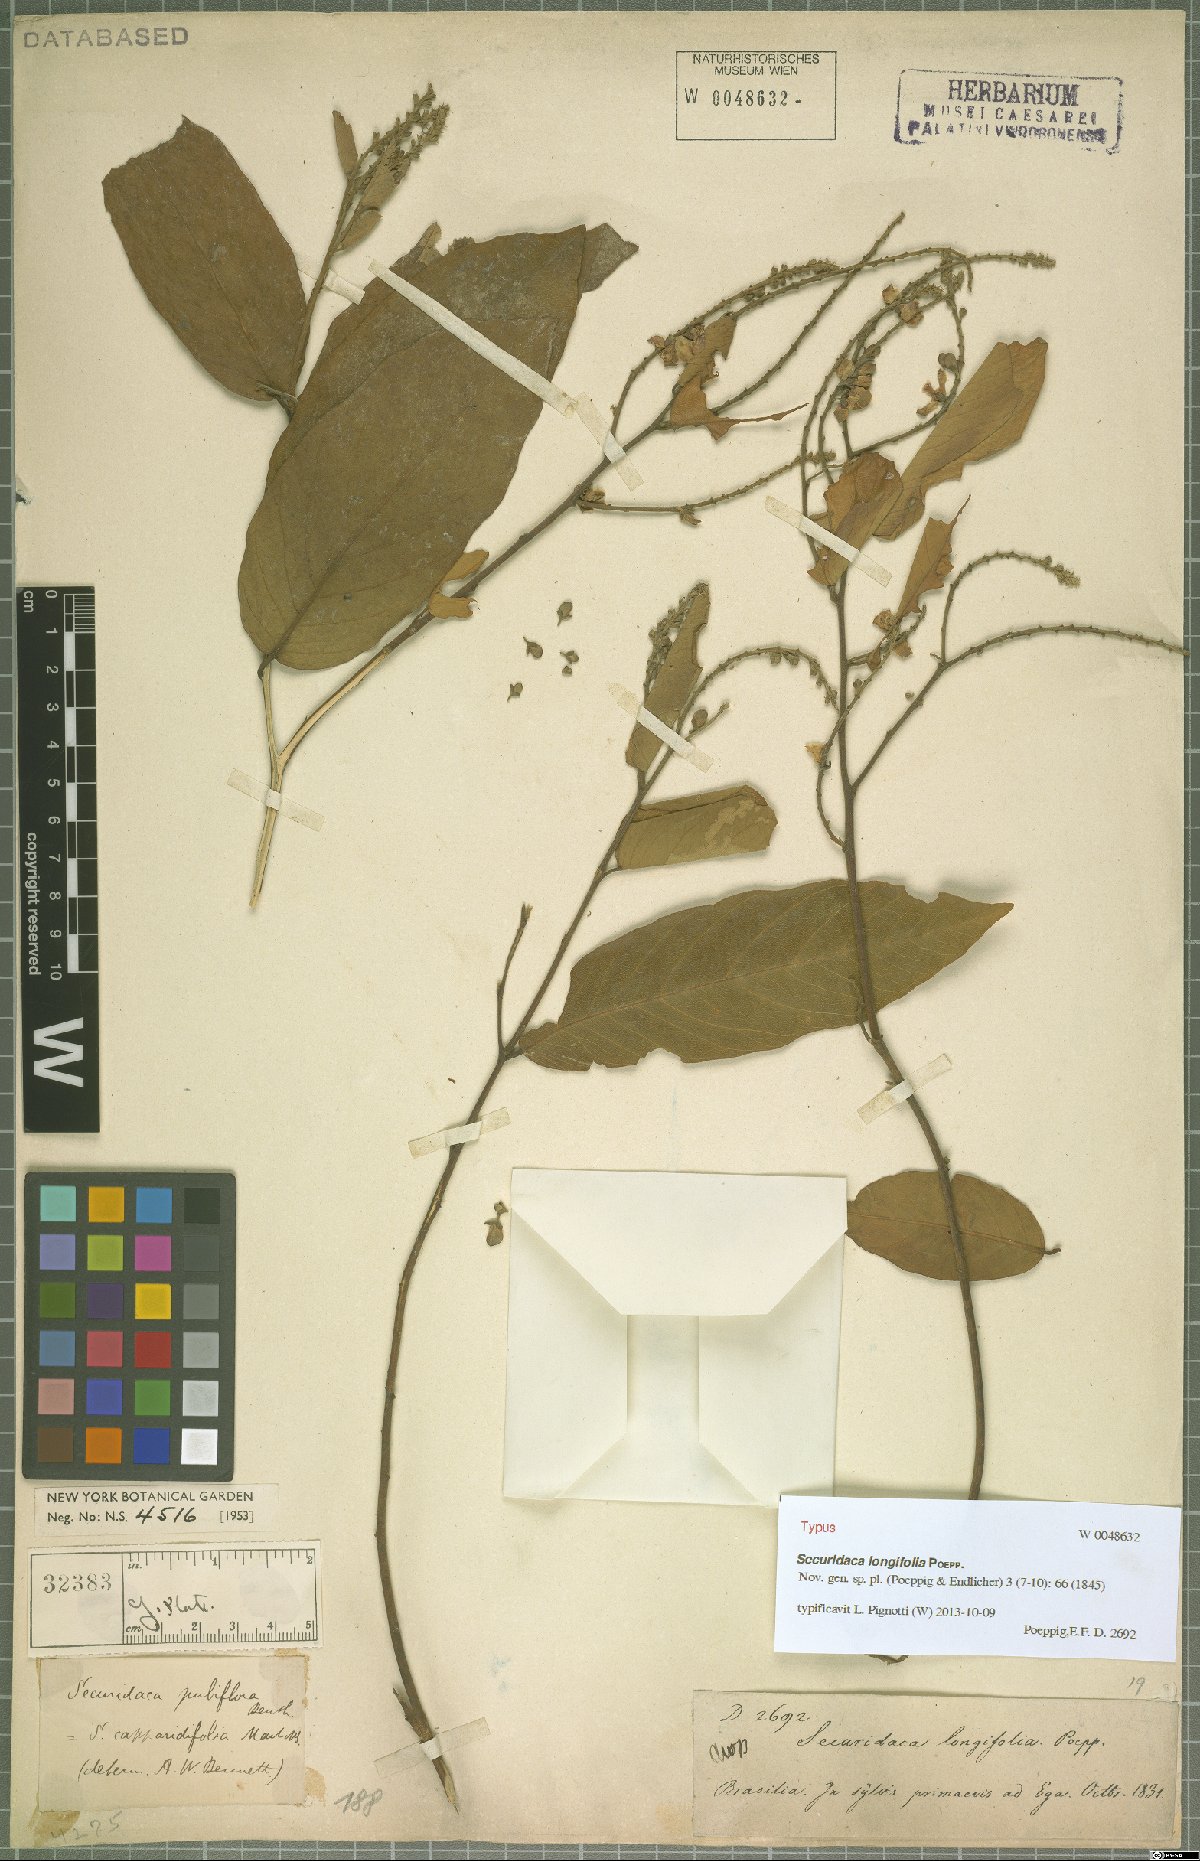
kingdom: Plantae
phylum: Tracheophyta
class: Magnoliopsida
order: Fabales
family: Polygalaceae
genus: Securidaca
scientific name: Securidaca longifolia
